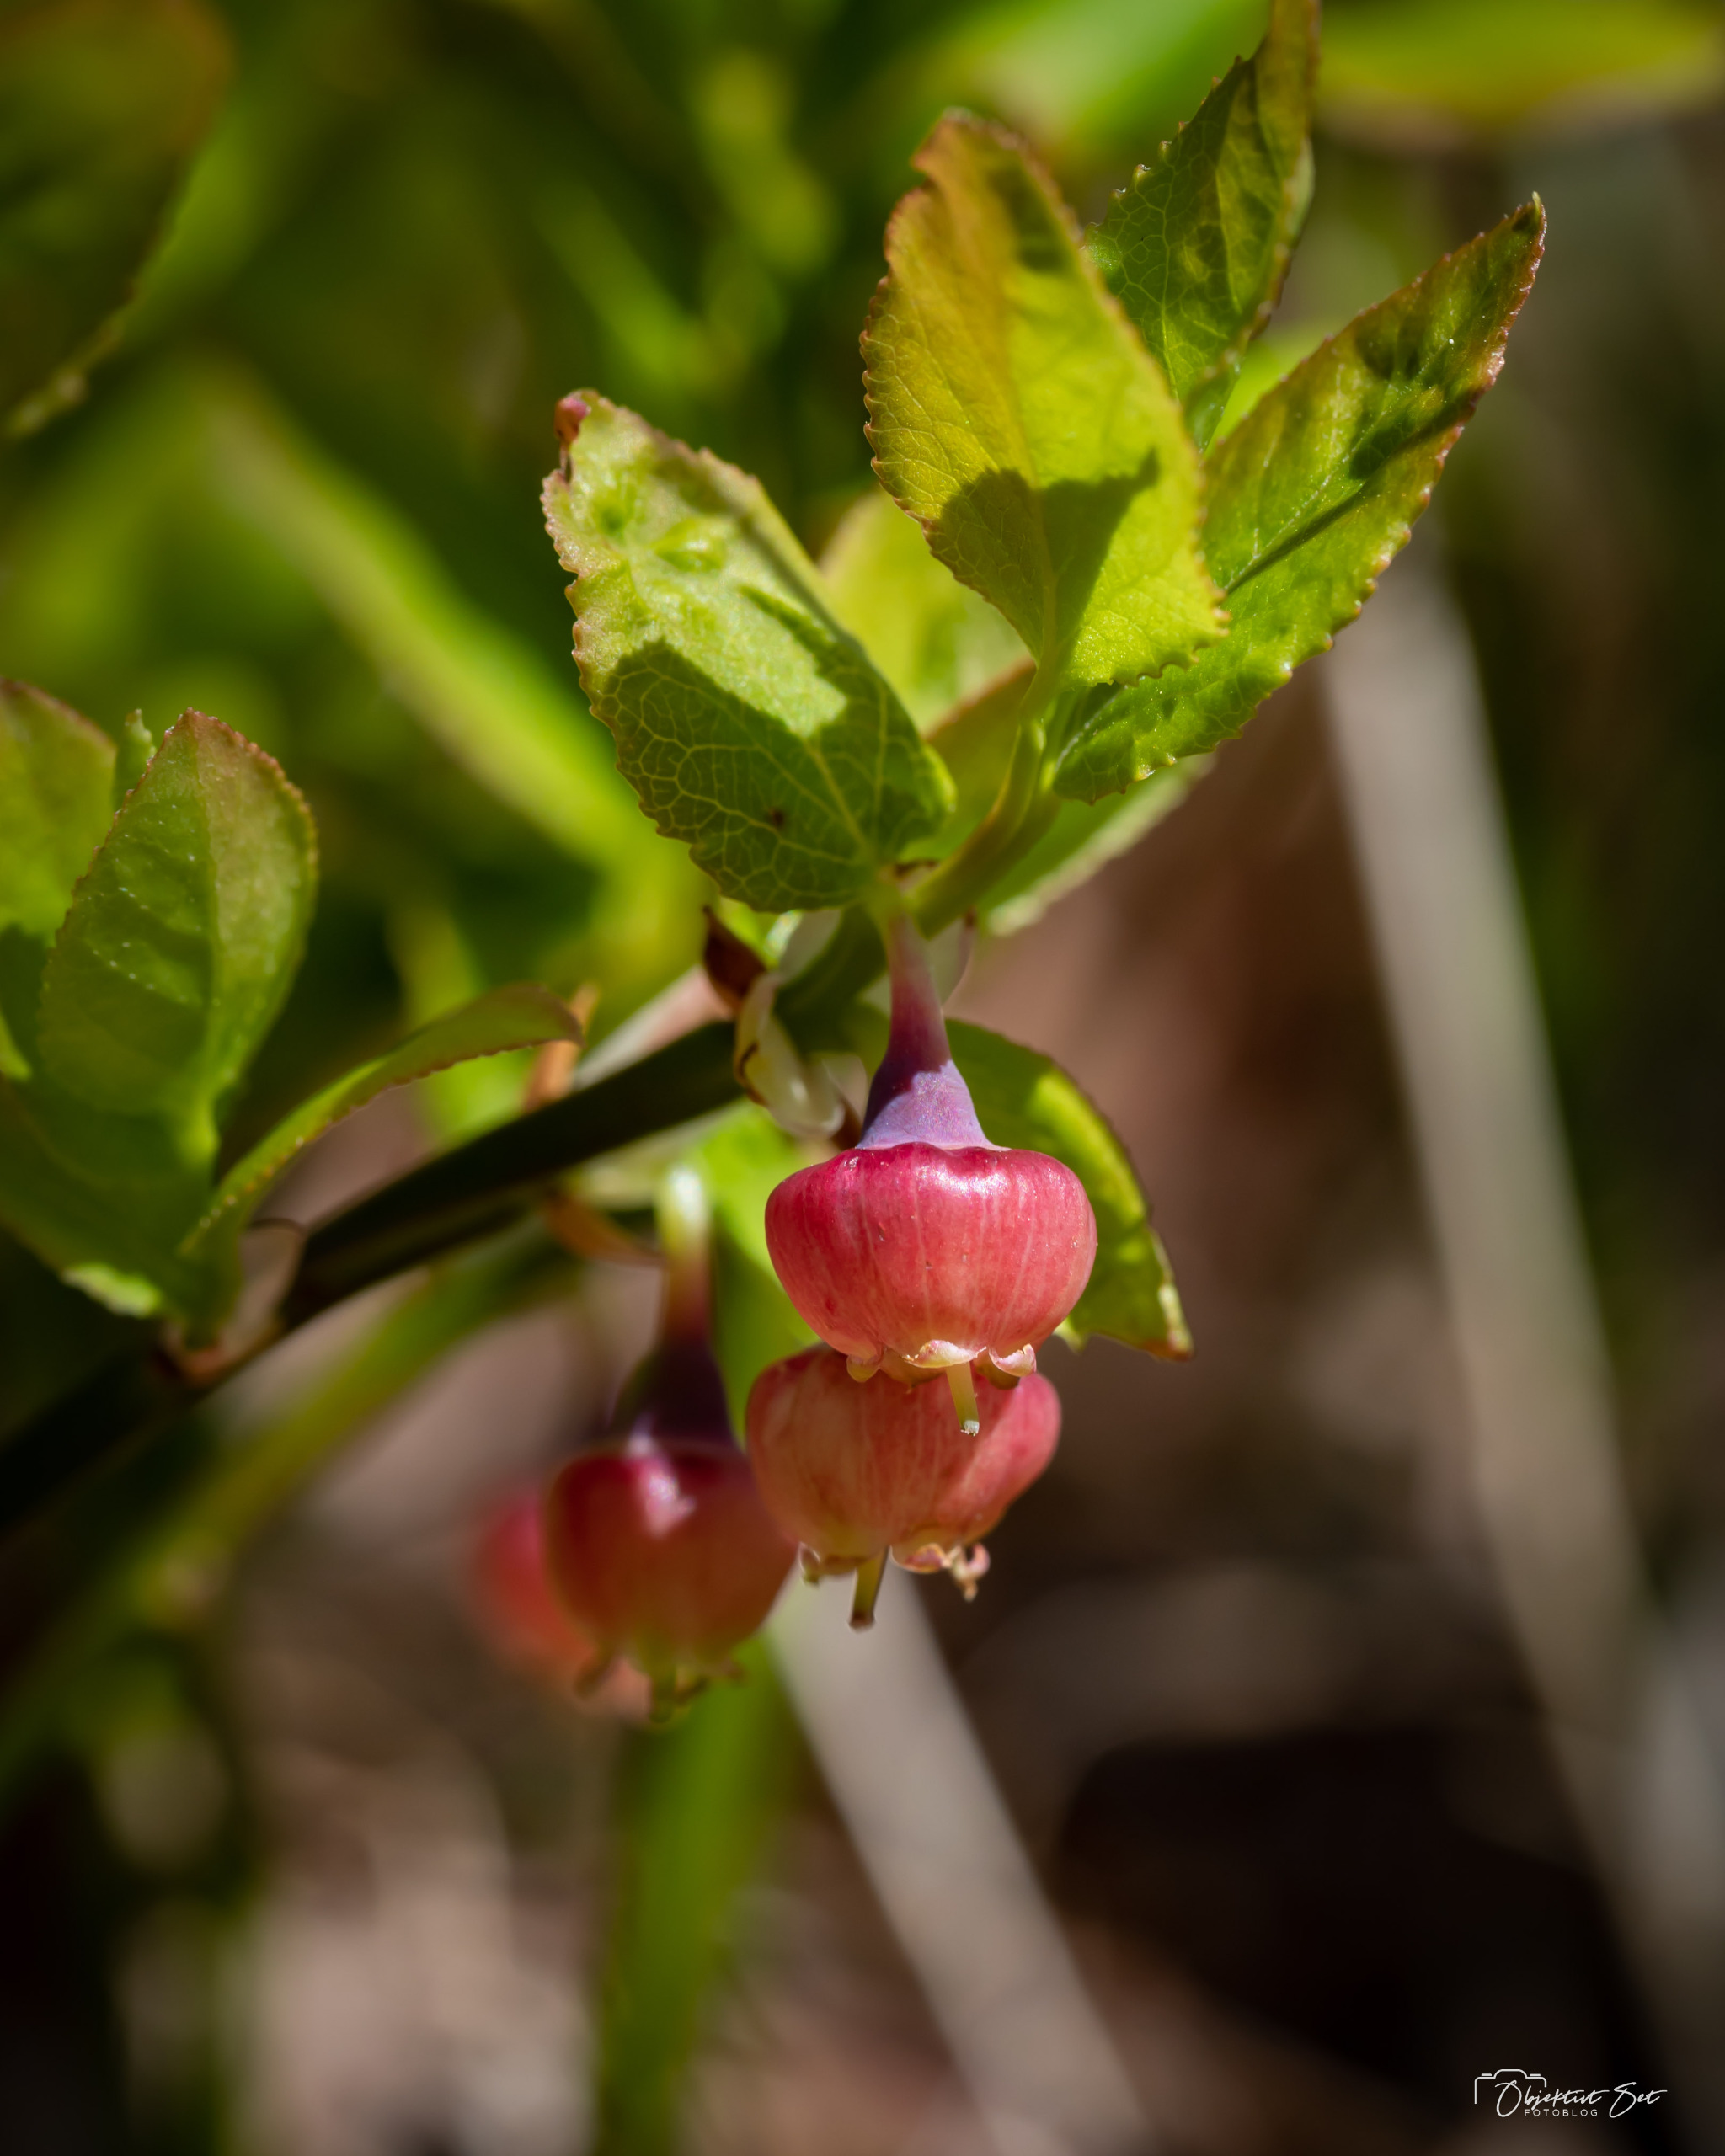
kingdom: Plantae
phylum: Tracheophyta
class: Magnoliopsida
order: Ericales
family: Ericaceae
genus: Vaccinium
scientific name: Vaccinium myrtillus
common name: Blåbær
